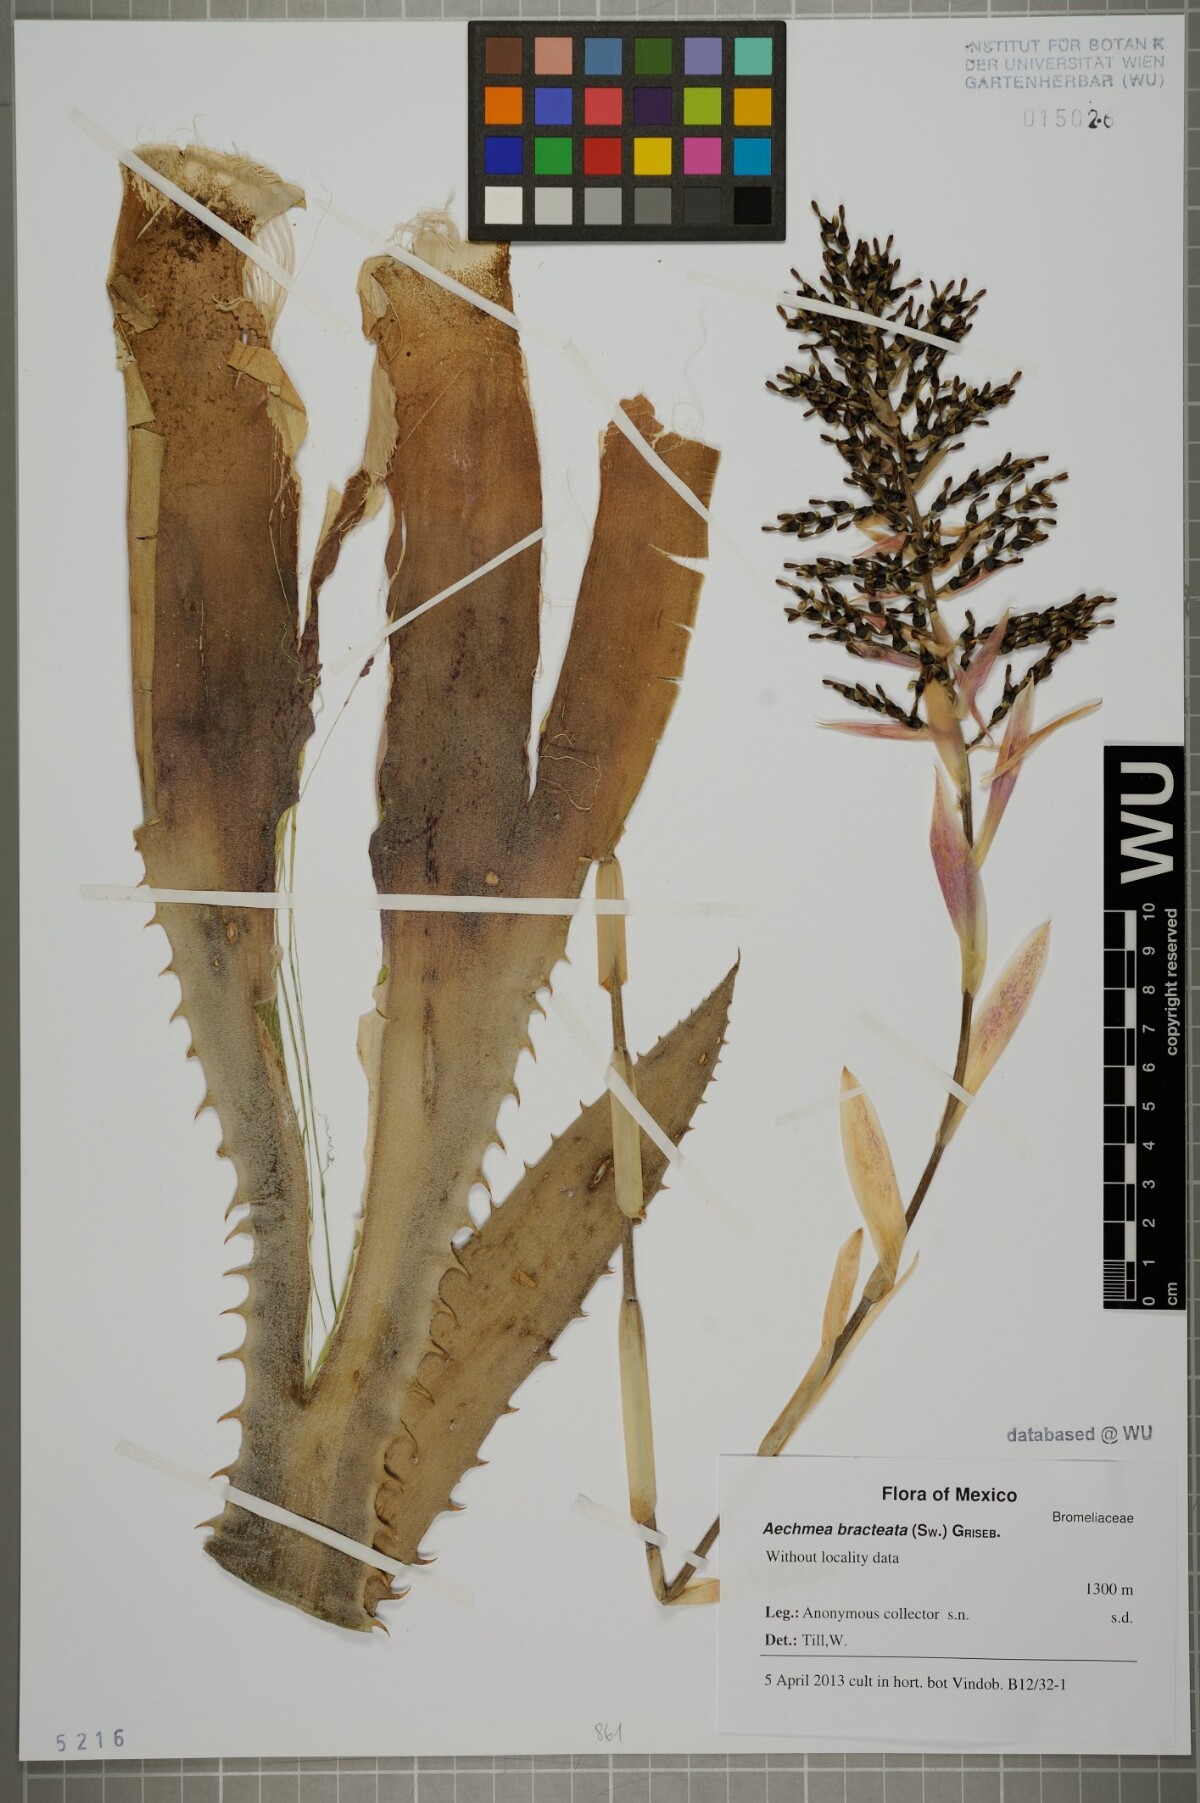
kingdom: Plantae
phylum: Tracheophyta
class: Liliopsida
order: Poales
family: Bromeliaceae
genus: Aechmea
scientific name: Aechmea bracteata
